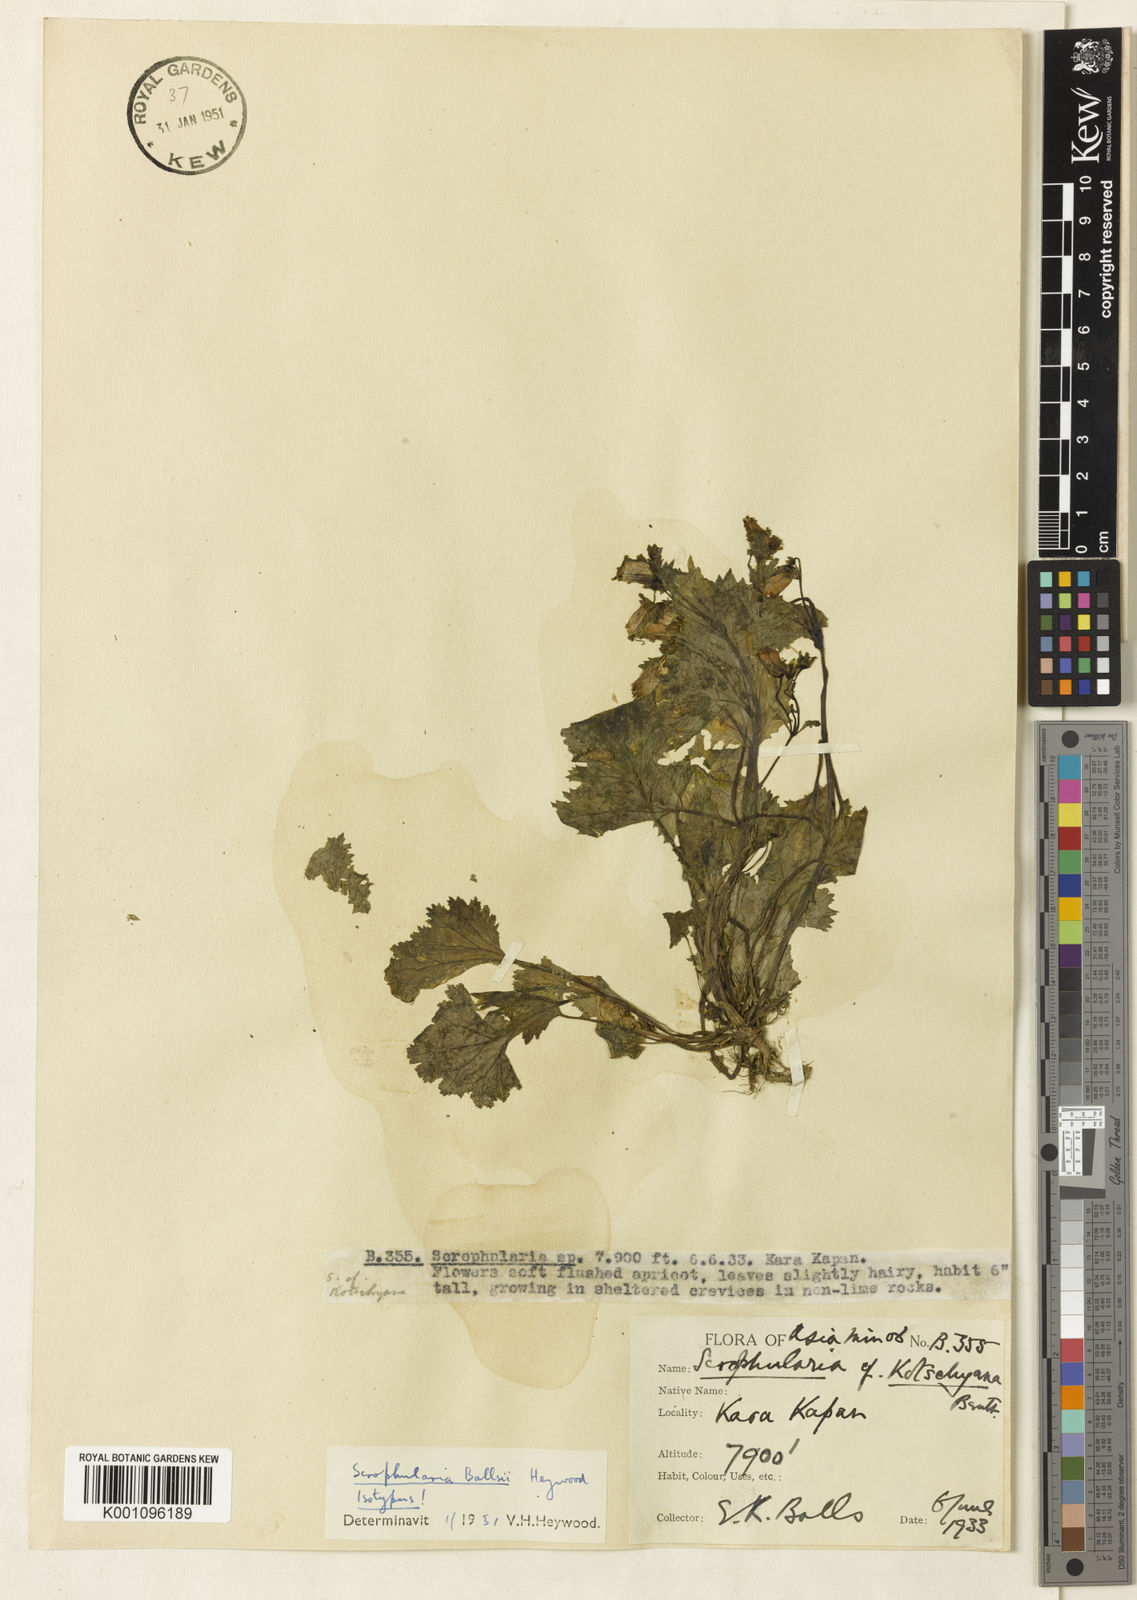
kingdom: Plantae
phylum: Tracheophyta
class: Magnoliopsida
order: Lamiales
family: Scrophulariaceae
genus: Scrophularia
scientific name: Scrophularia kotschyana
